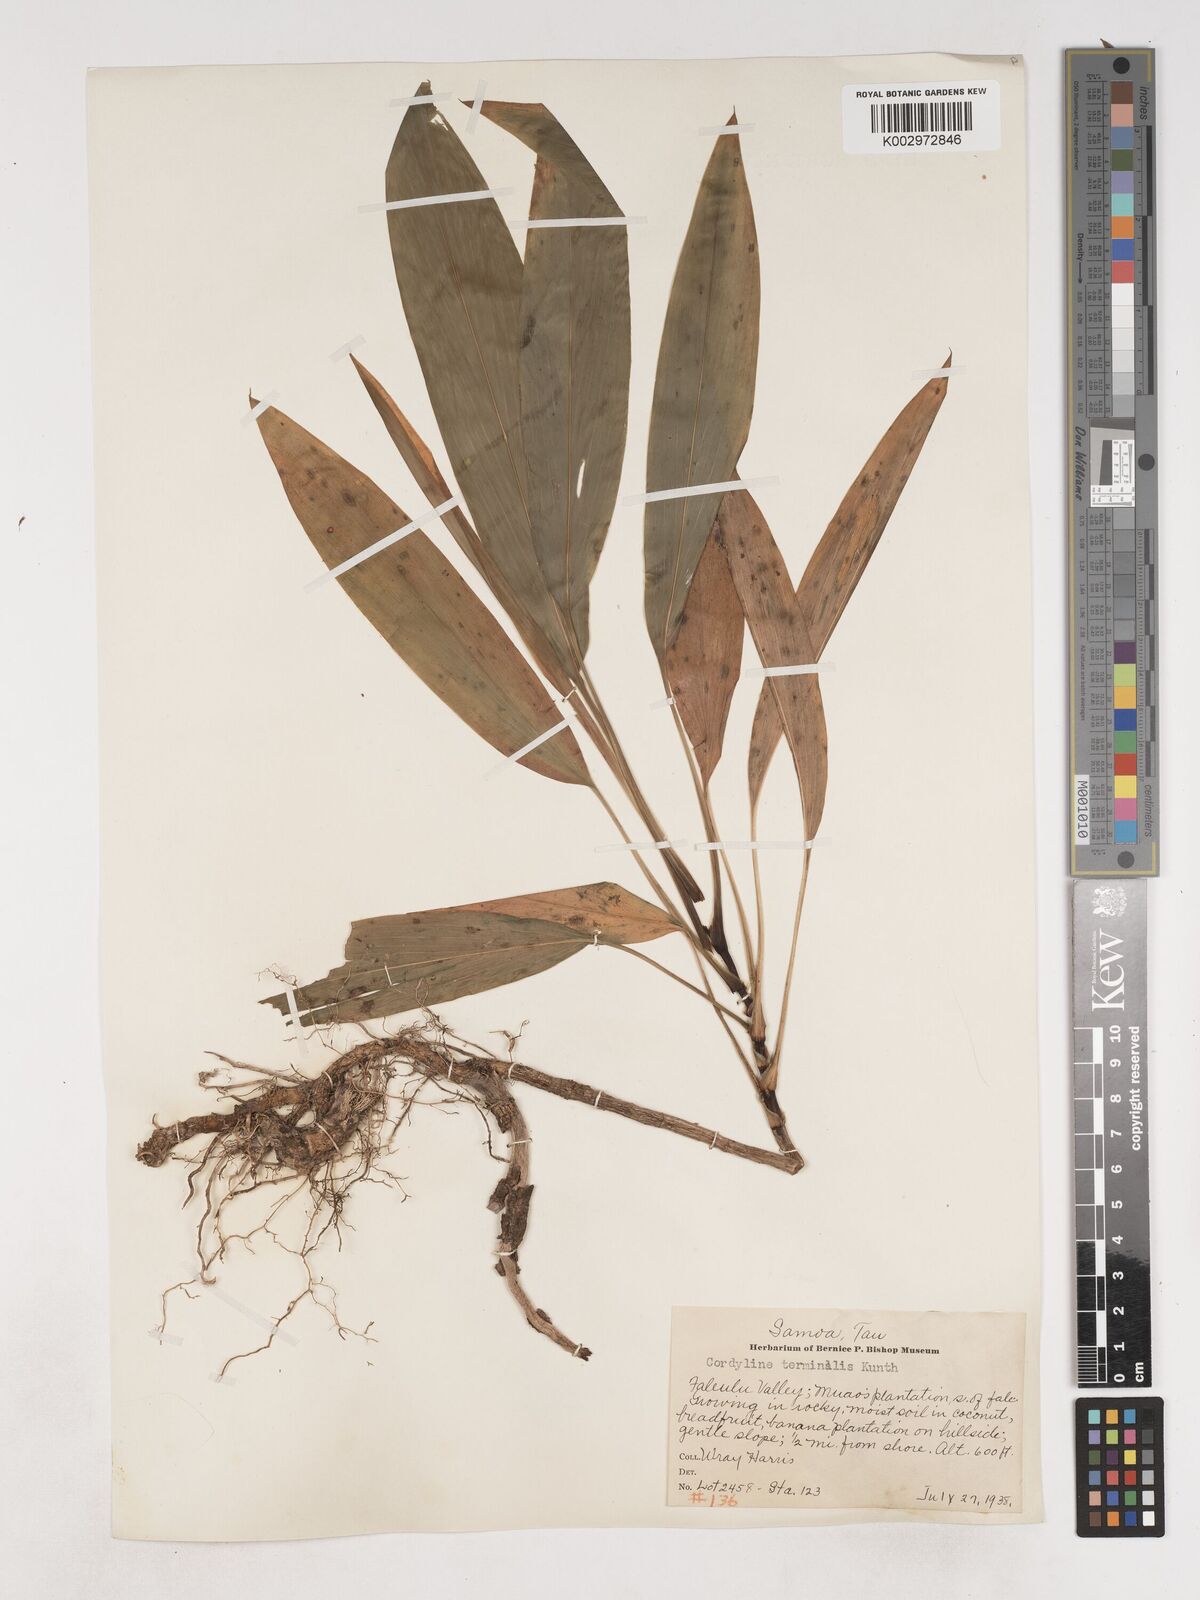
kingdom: Plantae
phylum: Tracheophyta
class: Liliopsida
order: Asparagales
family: Asparagaceae
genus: Cordyline
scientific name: Cordyline fruticosa
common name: Good-luck-plant
